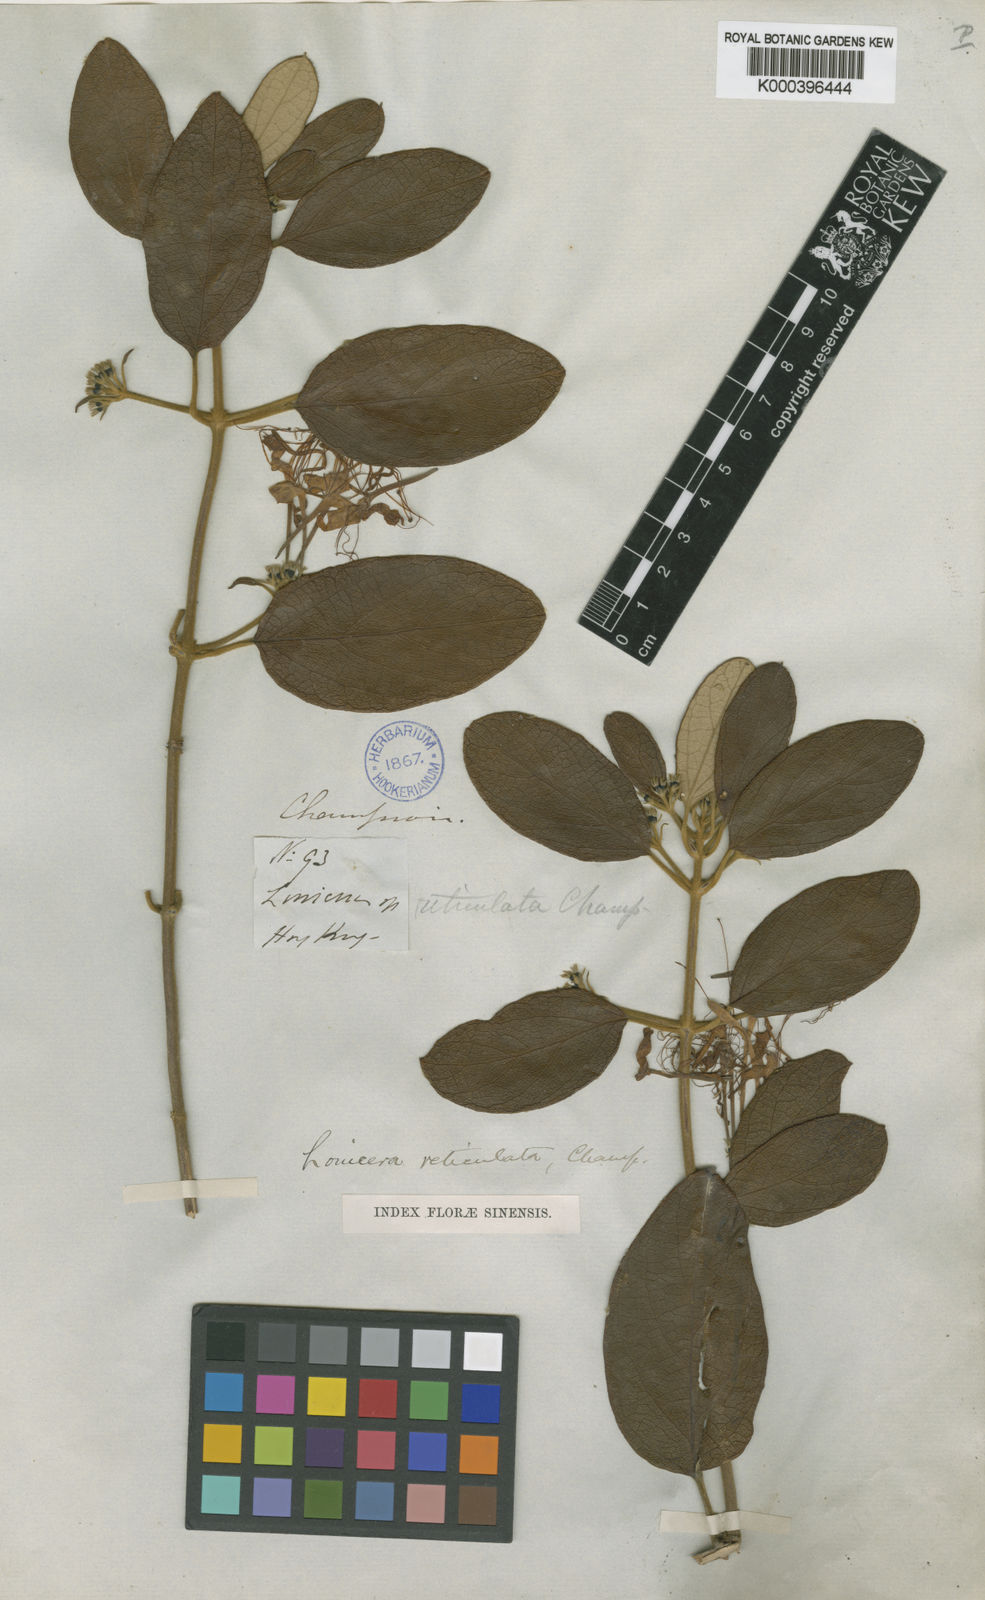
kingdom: Plantae
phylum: Tracheophyta
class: Magnoliopsida
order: Dipsacales
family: Caprifoliaceae
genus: Lonicera
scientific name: Lonicera rhytidophylla
